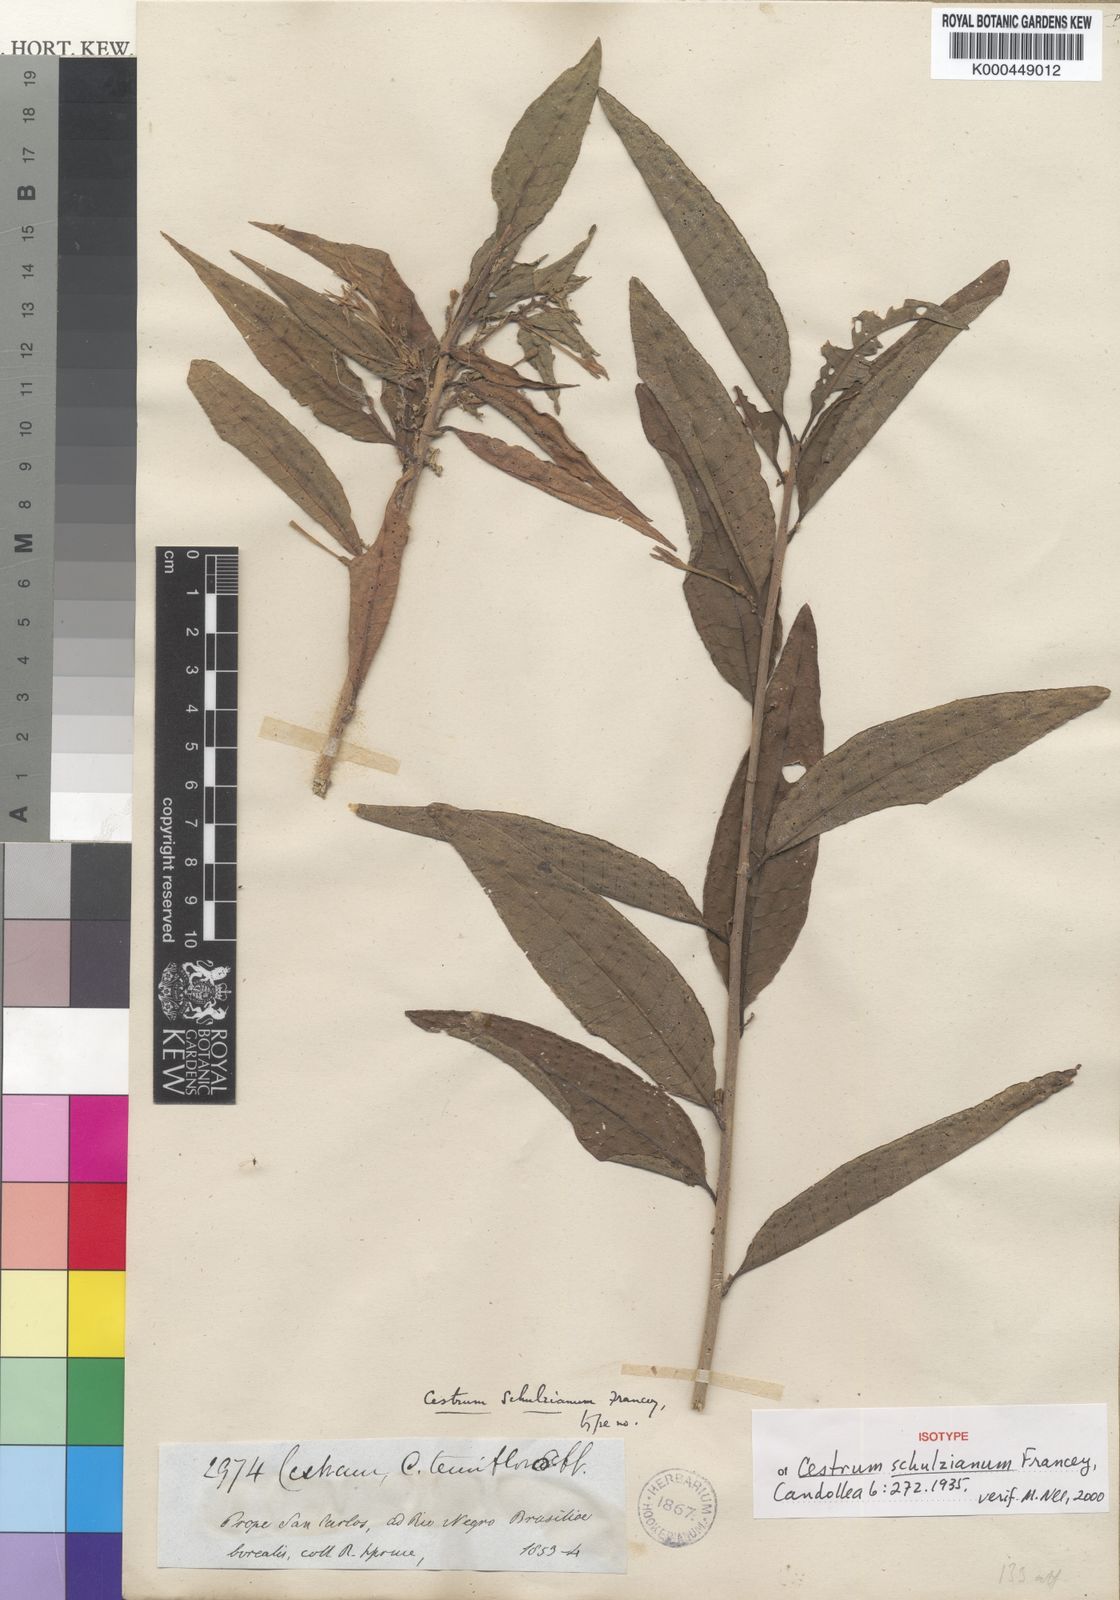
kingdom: Plantae
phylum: Tracheophyta
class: Magnoliopsida
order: Solanales
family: Solanaceae
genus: Cestrum
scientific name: Cestrum schulzianum
